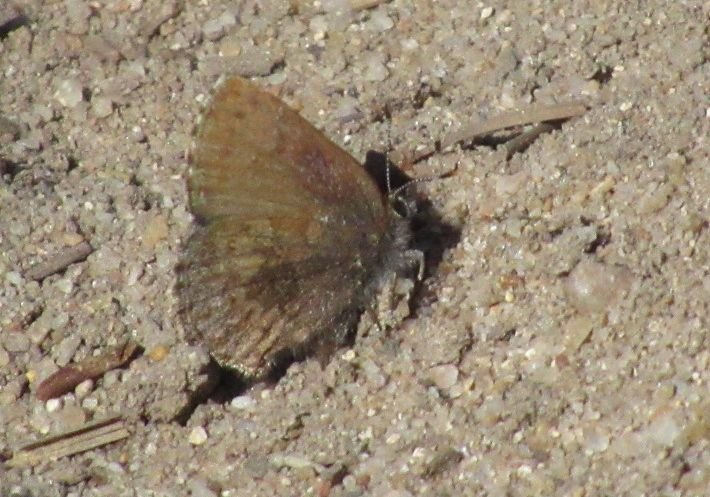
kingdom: Animalia
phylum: Arthropoda
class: Insecta
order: Lepidoptera
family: Lycaenidae
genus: Callophrys
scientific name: Callophrys polios
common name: Hoary Elfin
